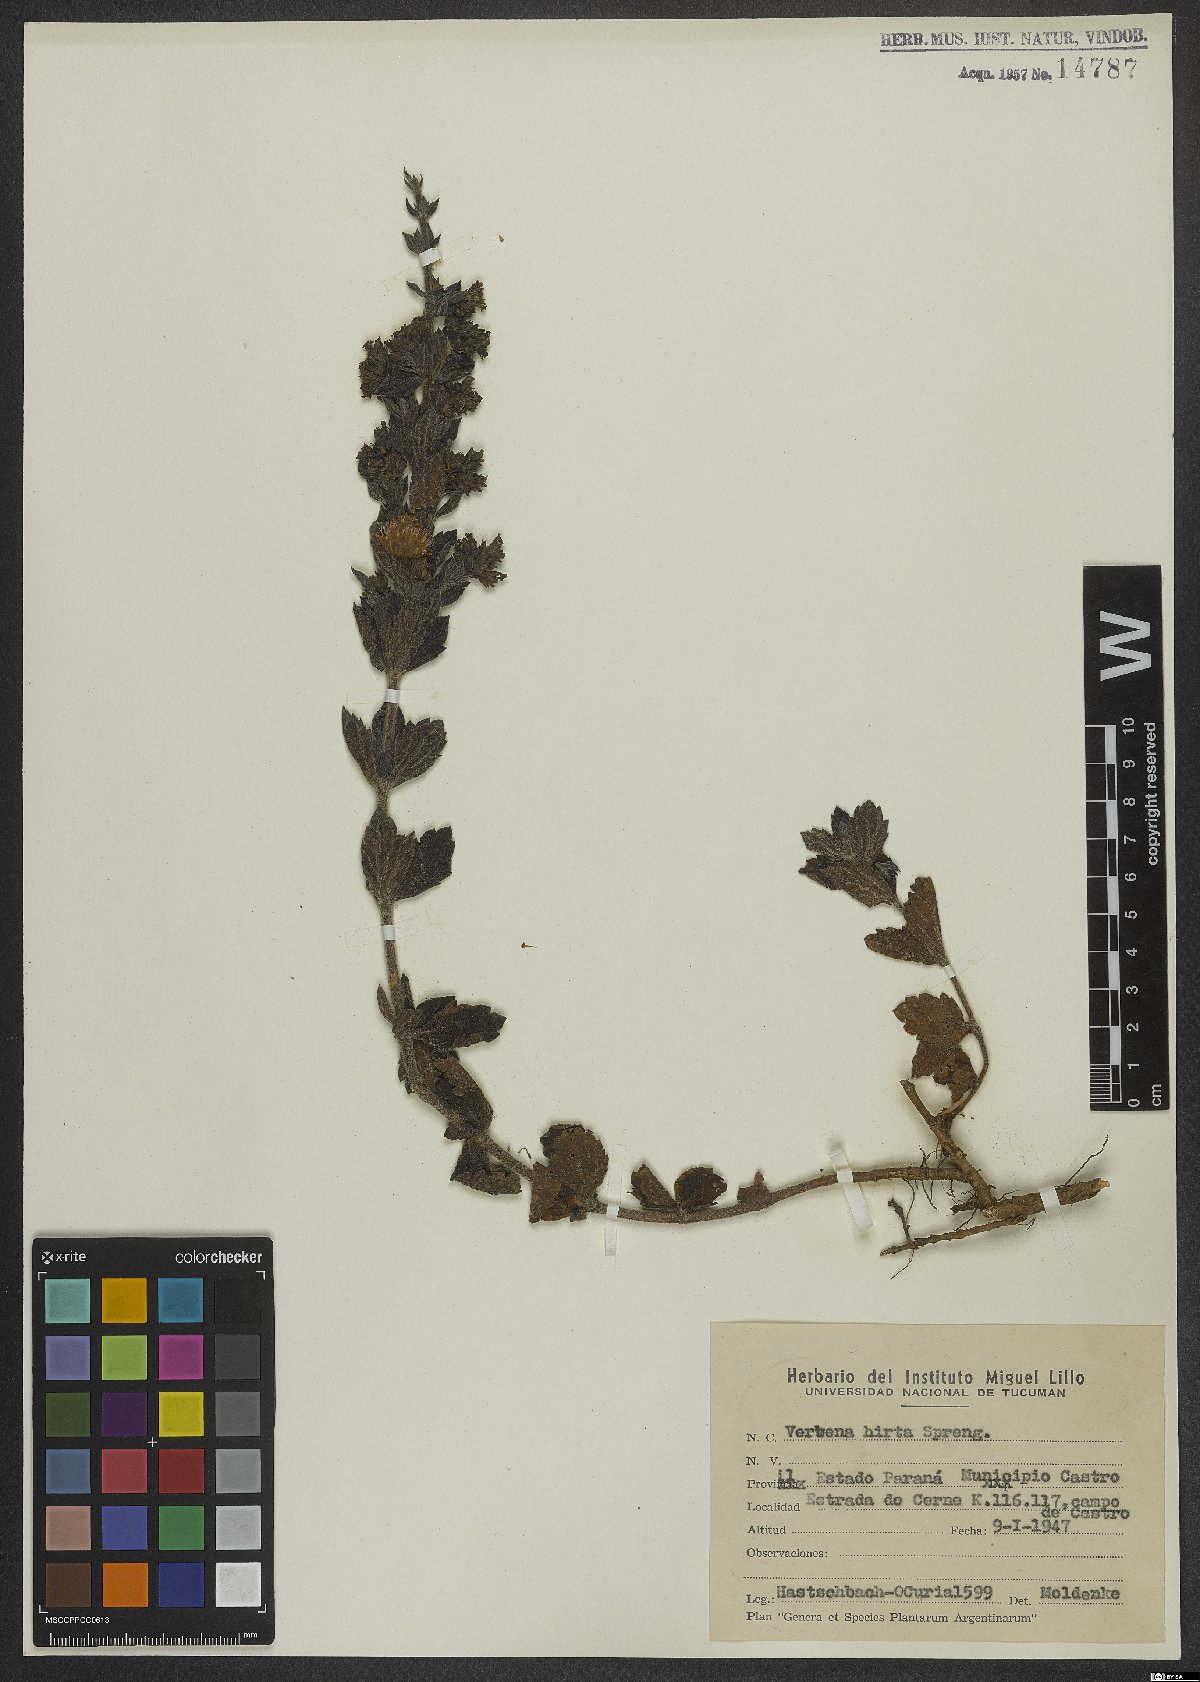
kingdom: Plantae
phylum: Tracheophyta
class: Magnoliopsida
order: Lamiales
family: Verbenaceae
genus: Verbena
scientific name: Verbena hirta
